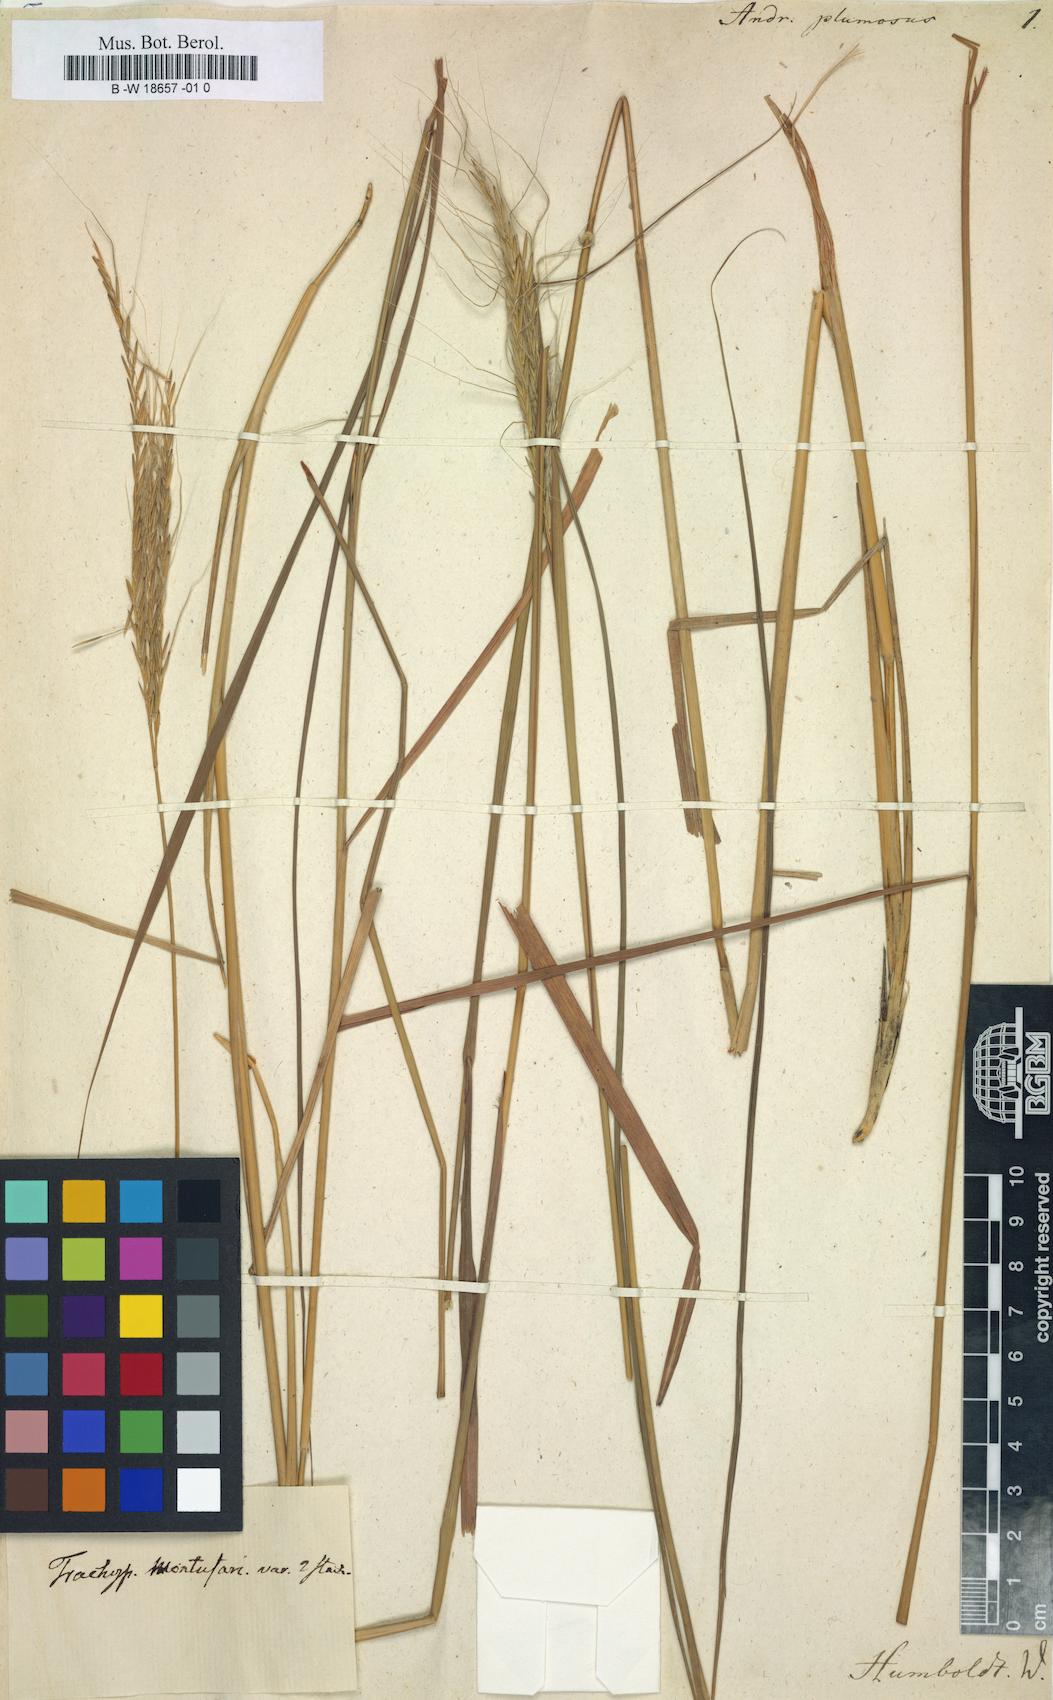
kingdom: Plantae
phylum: Tracheophyta
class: Liliopsida
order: Poales
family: Poaceae
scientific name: Poaceae
